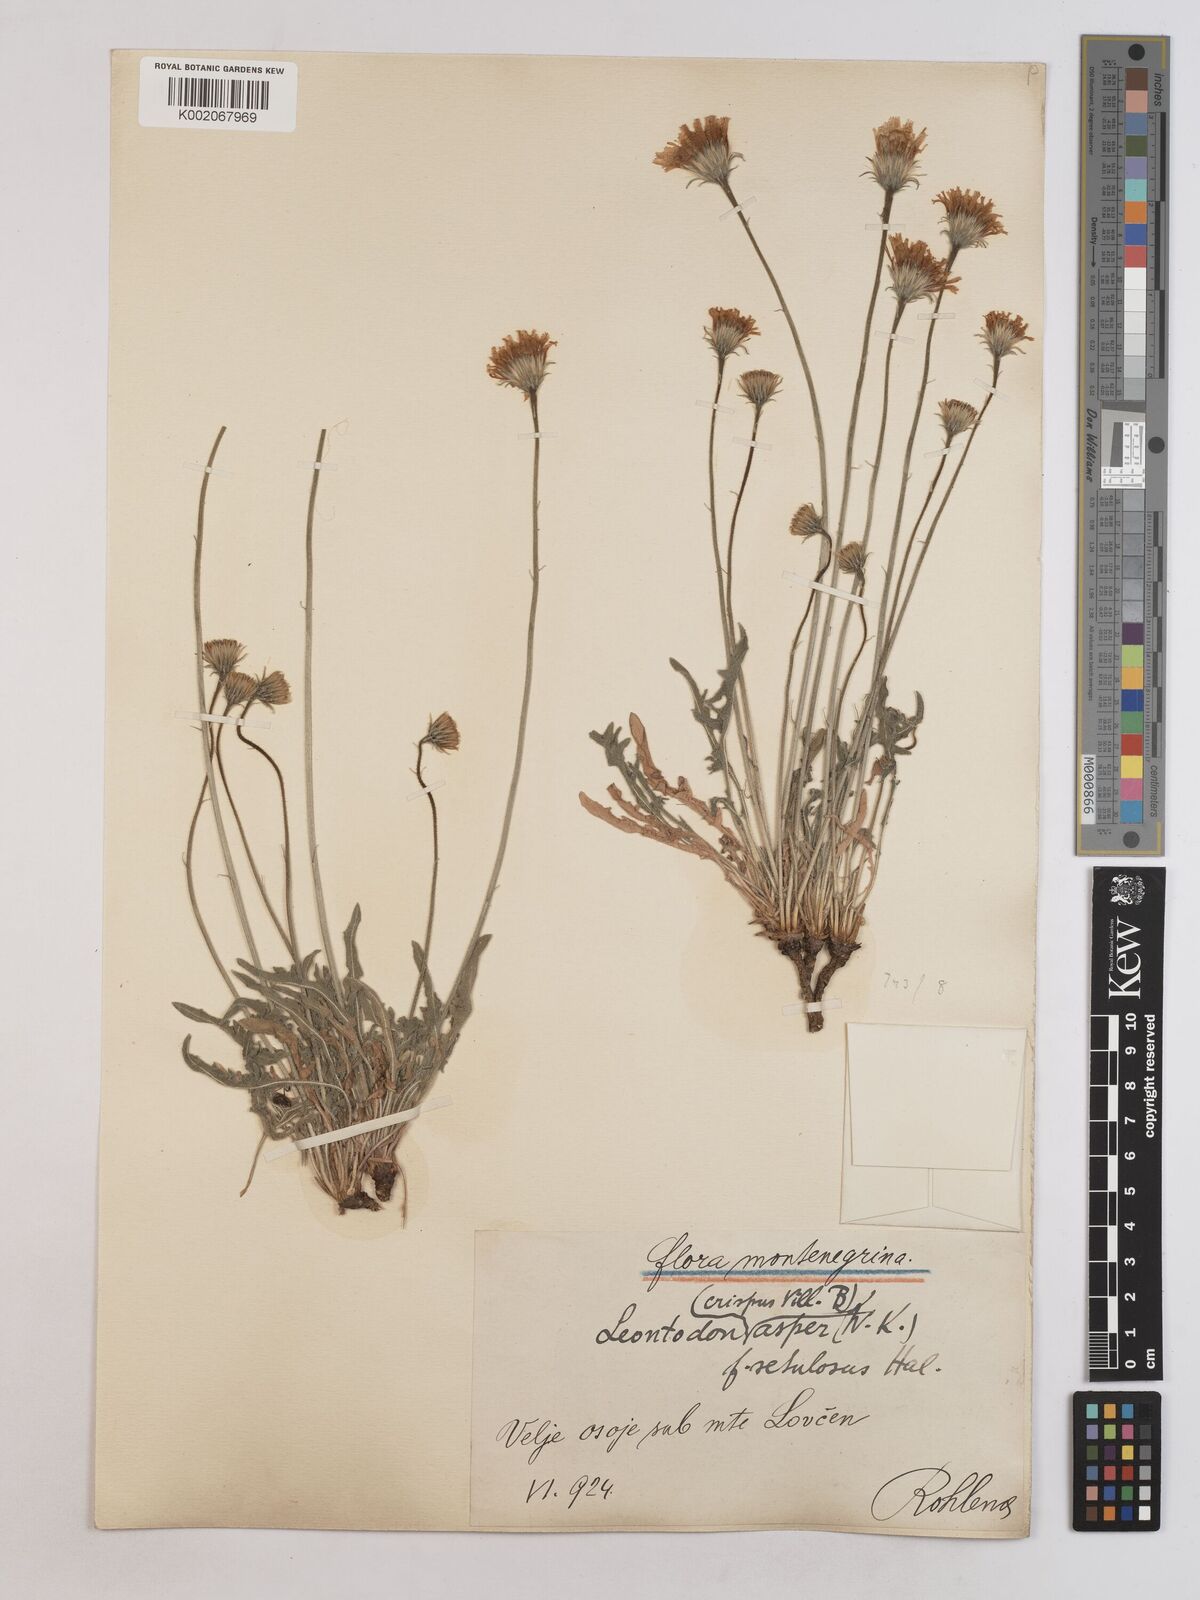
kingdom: Plantae
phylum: Tracheophyta
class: Magnoliopsida
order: Asterales
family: Asteraceae
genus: Leontodon
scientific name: Leontodon crispus
